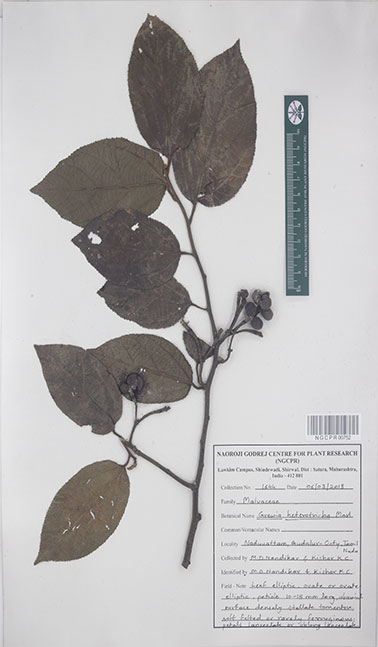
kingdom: Plantae
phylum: Tracheophyta
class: Magnoliopsida
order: Malvales
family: Malvaceae
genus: Grewia
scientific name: Grewia heterotricha
